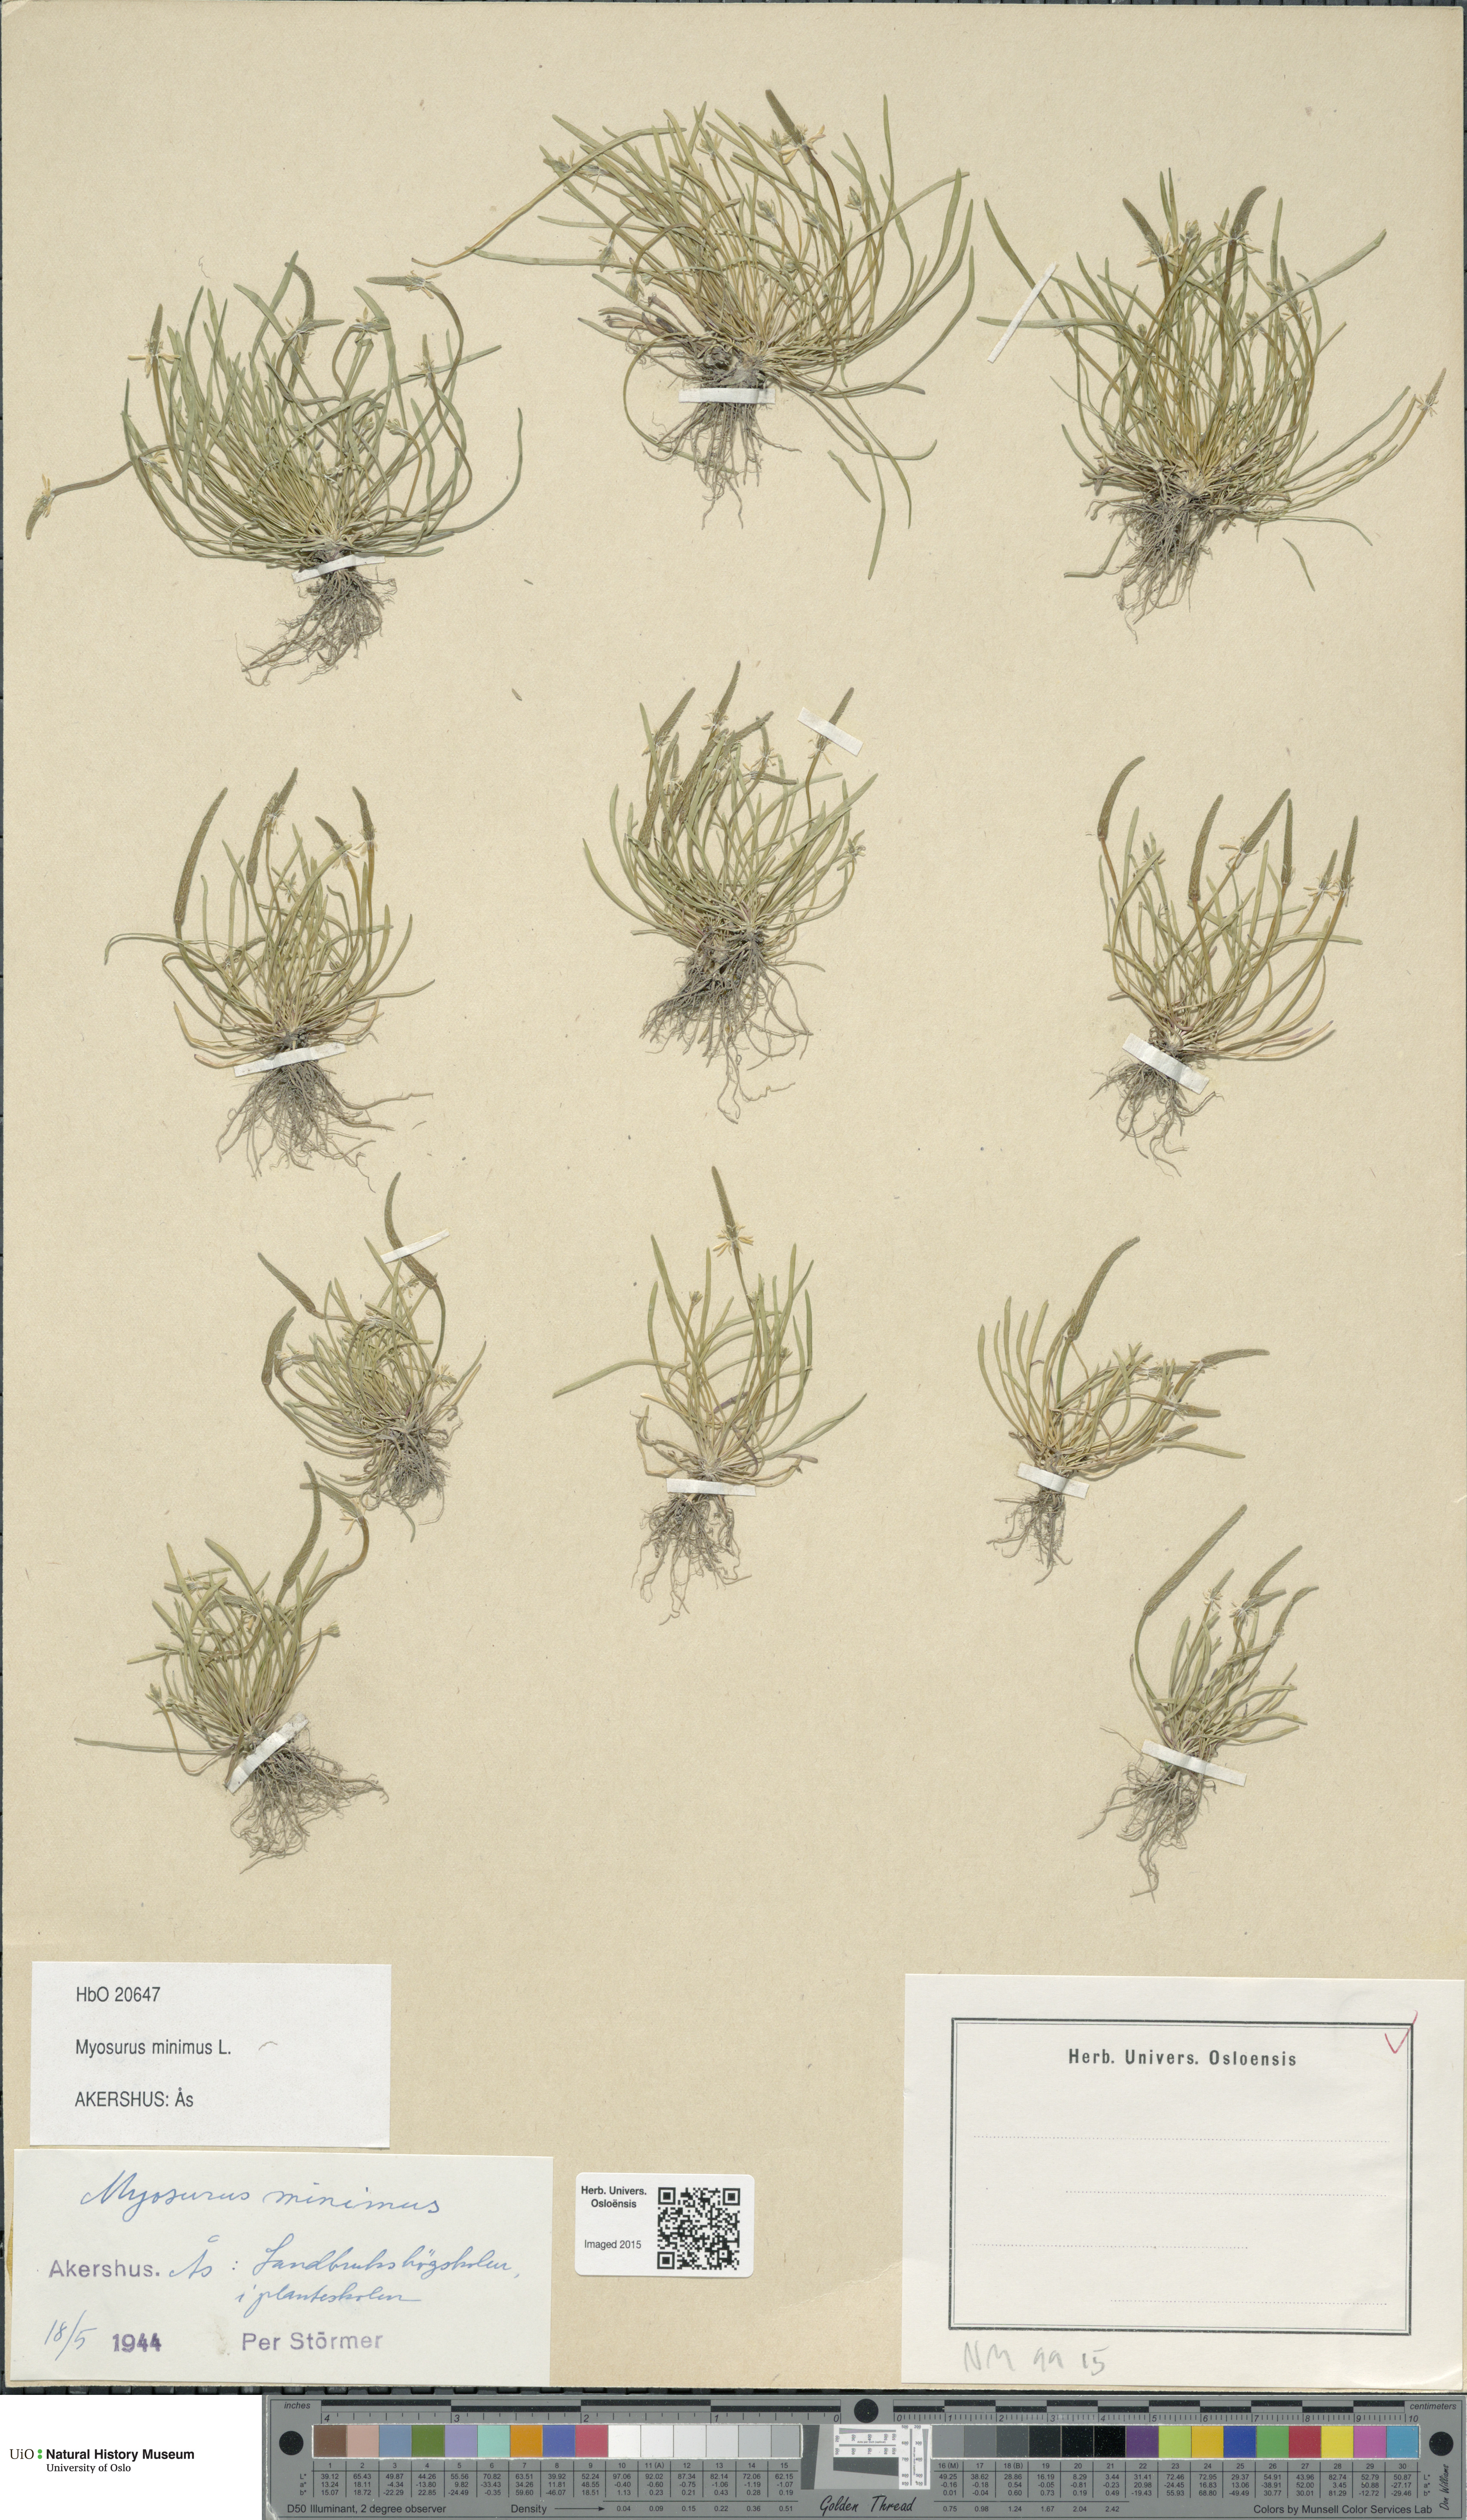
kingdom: Plantae
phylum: Tracheophyta
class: Magnoliopsida
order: Ranunculales
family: Ranunculaceae
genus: Myosurus
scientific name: Myosurus minimus
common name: Mousetail
